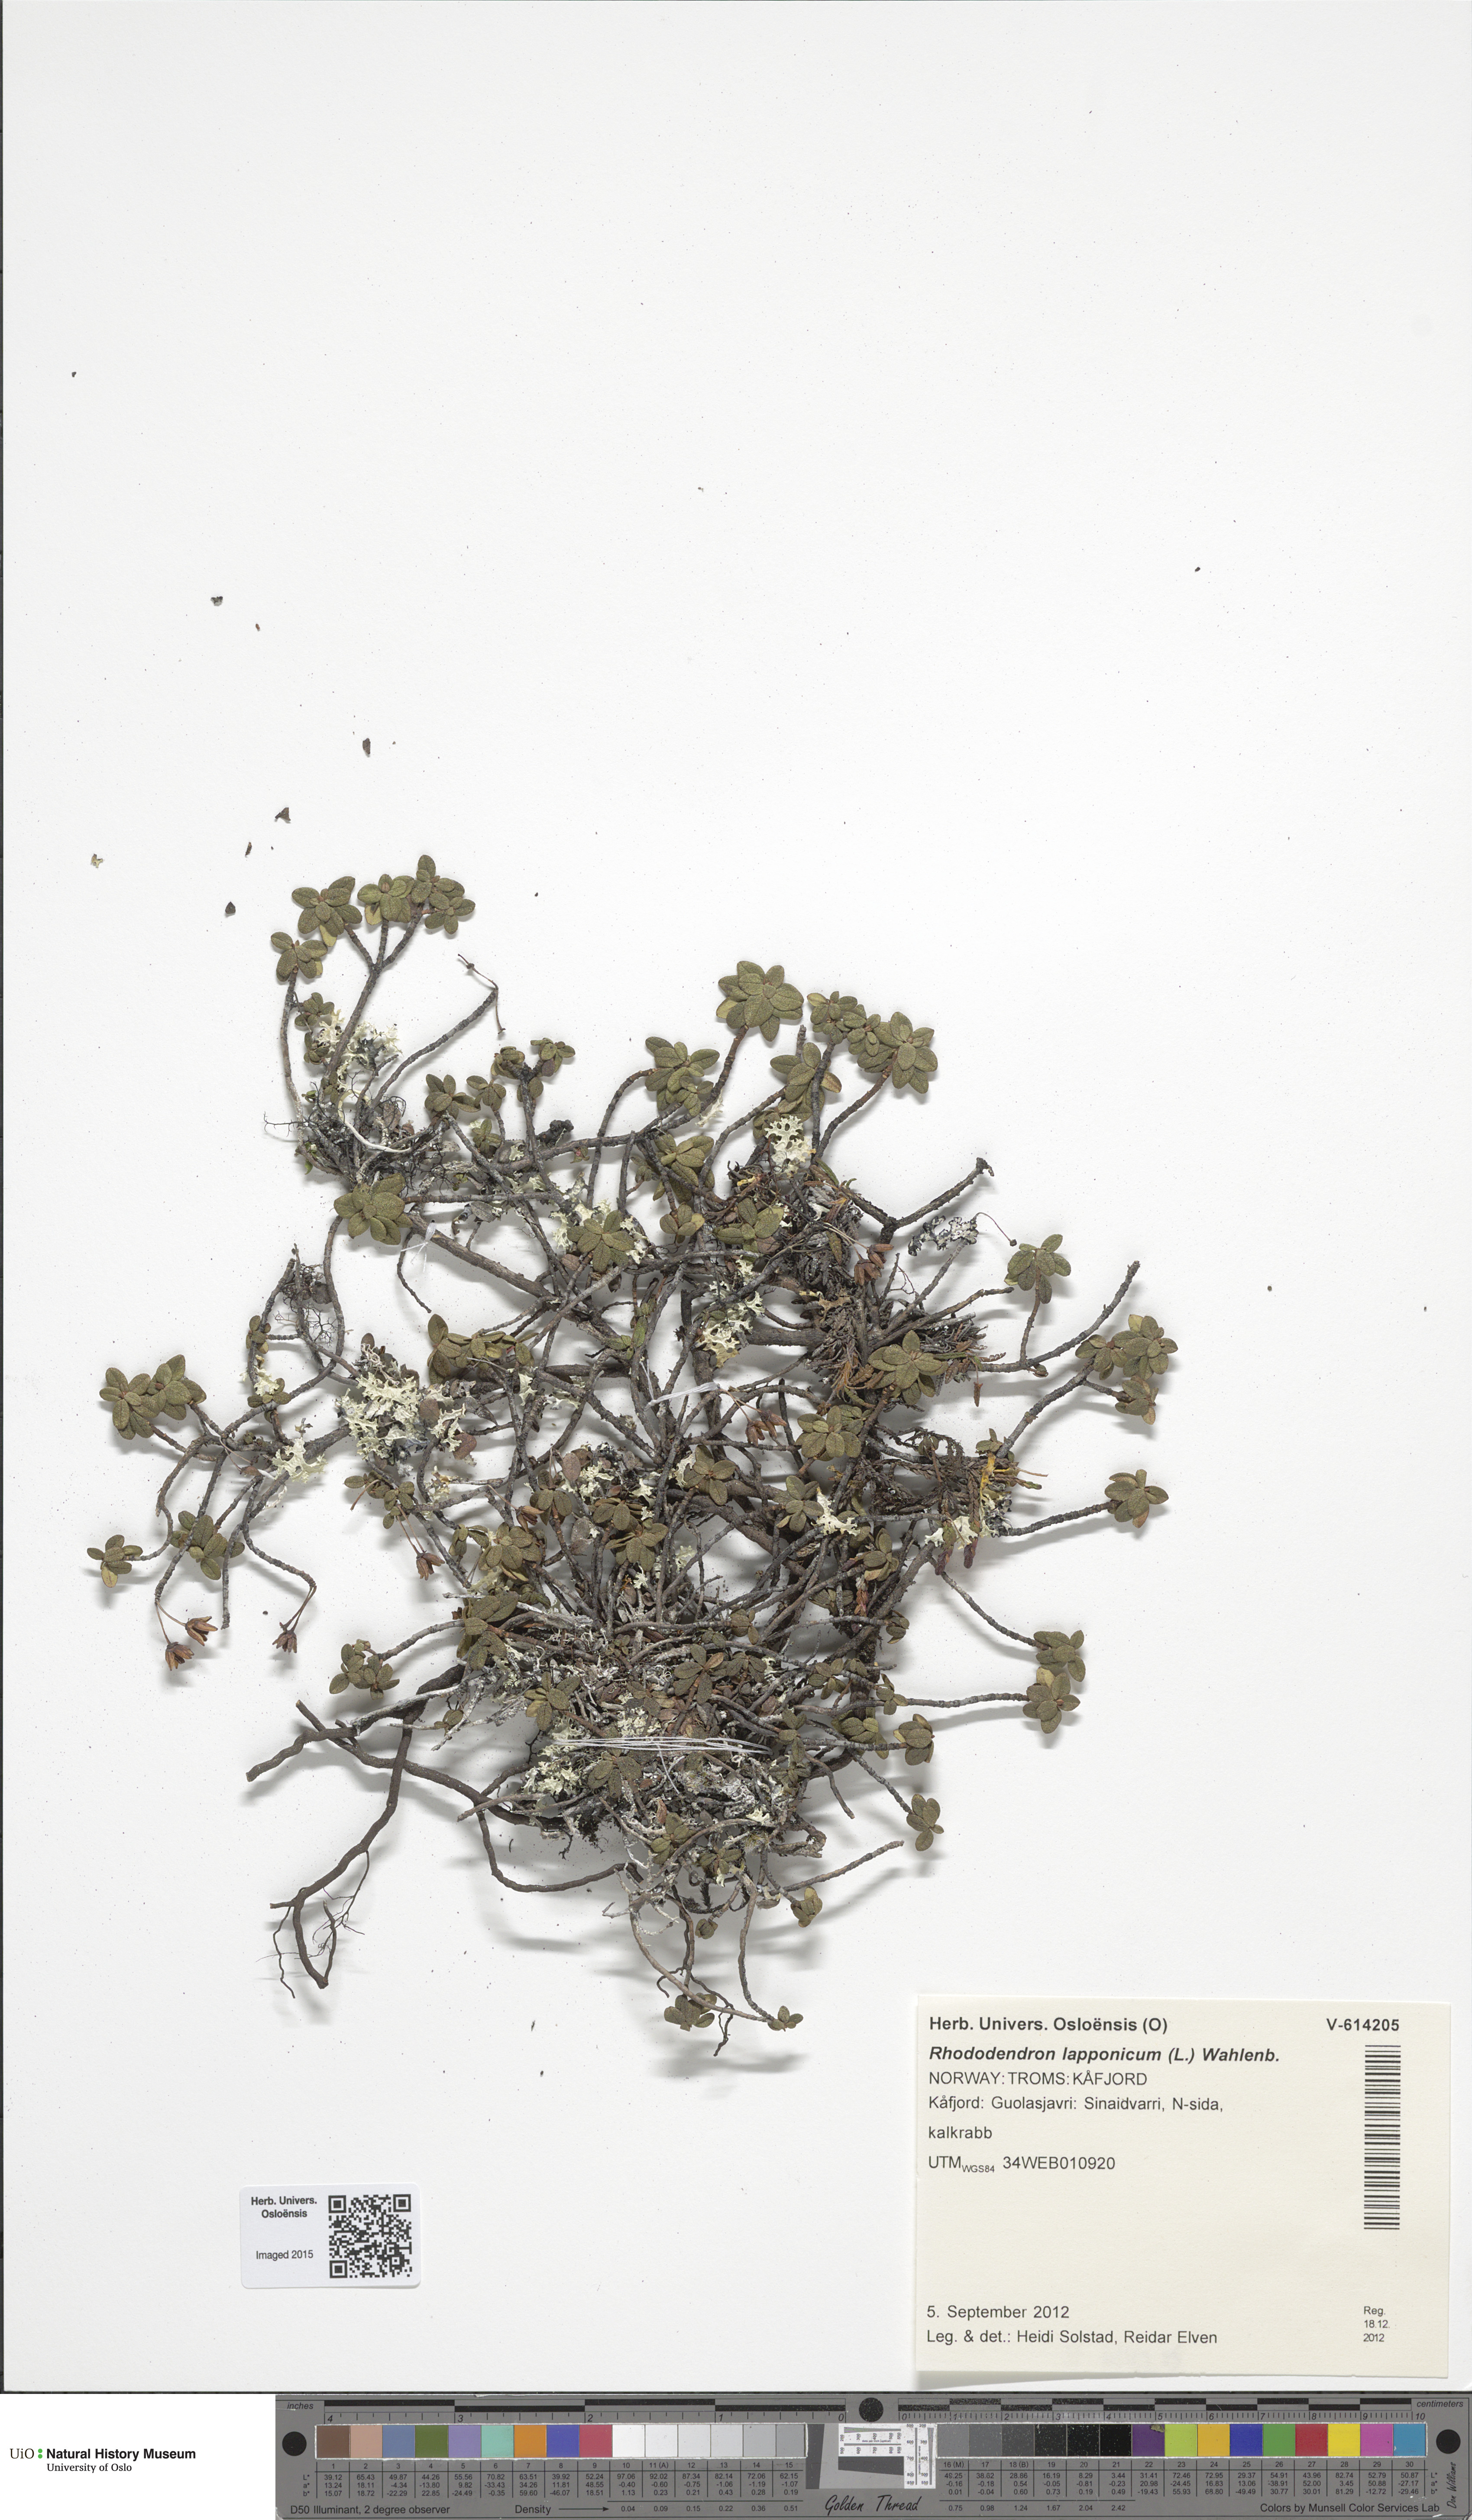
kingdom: Plantae
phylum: Tracheophyta
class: Magnoliopsida
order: Ericales
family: Ericaceae
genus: Rhododendron
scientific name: Rhododendron lapponicum
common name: Lapland rhododendron
